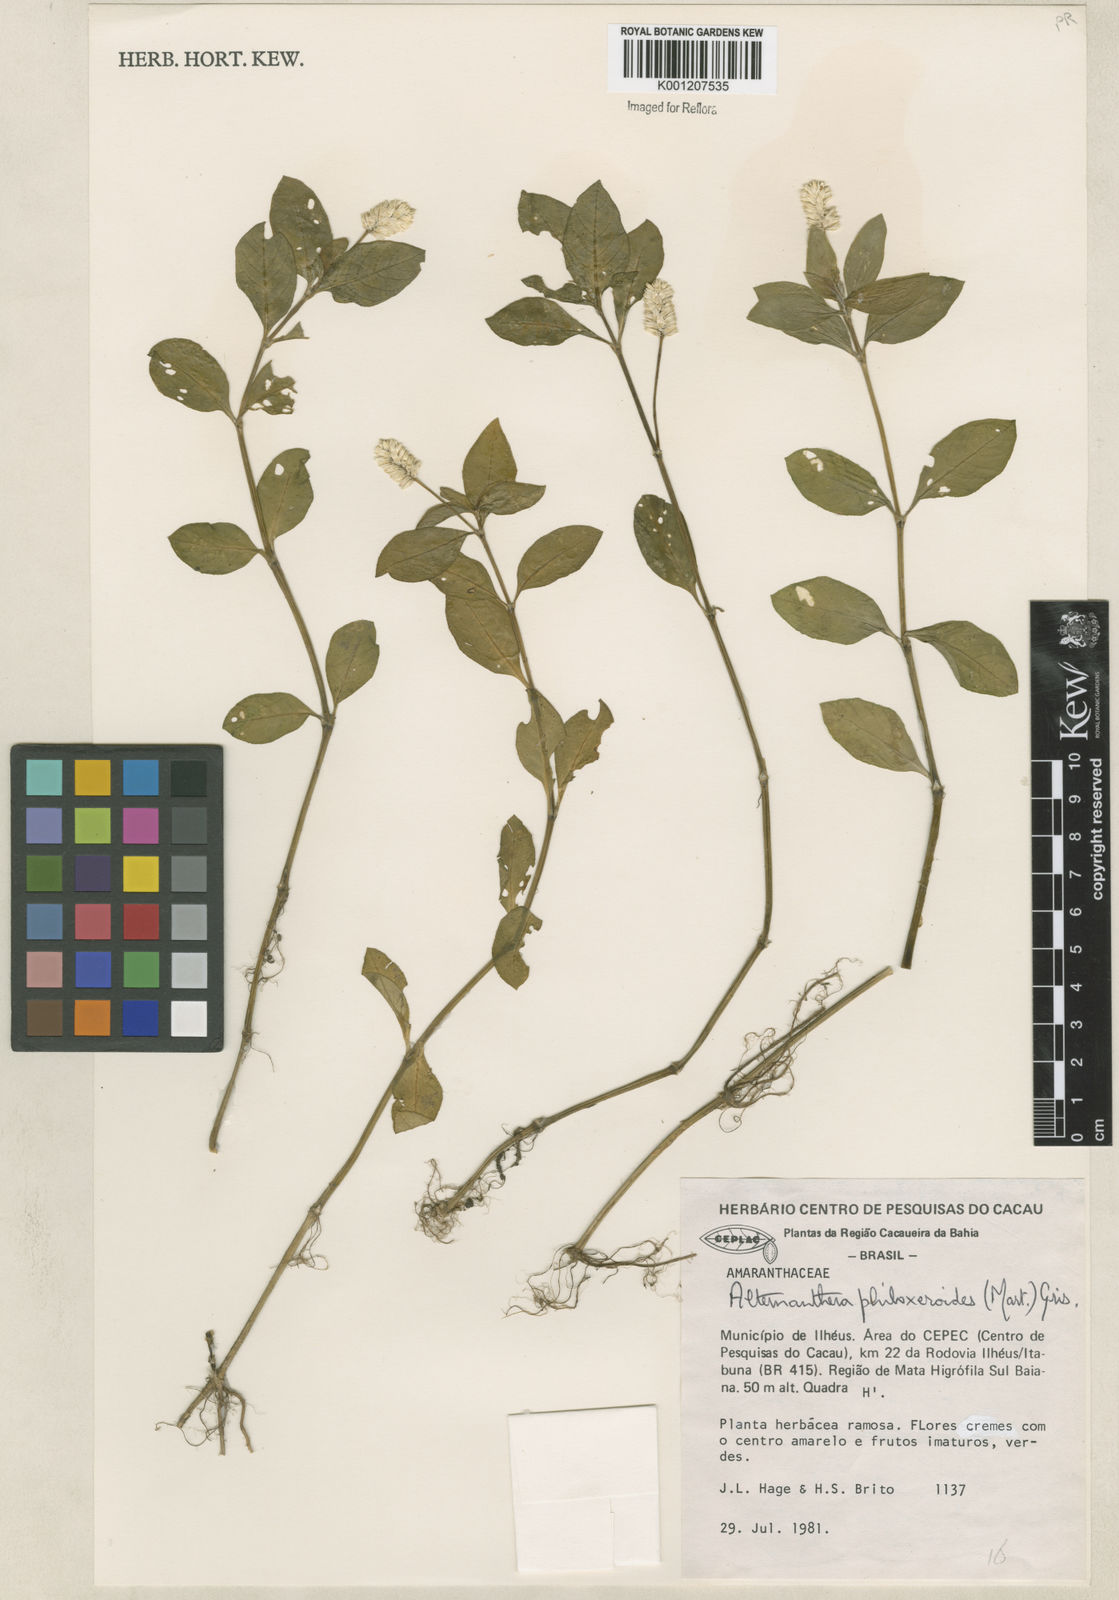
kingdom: Plantae
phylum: Tracheophyta
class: Magnoliopsida
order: Caryophyllales
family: Amaranthaceae
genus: Alternanthera
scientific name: Alternanthera philoxeroides
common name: Alligatorweed
